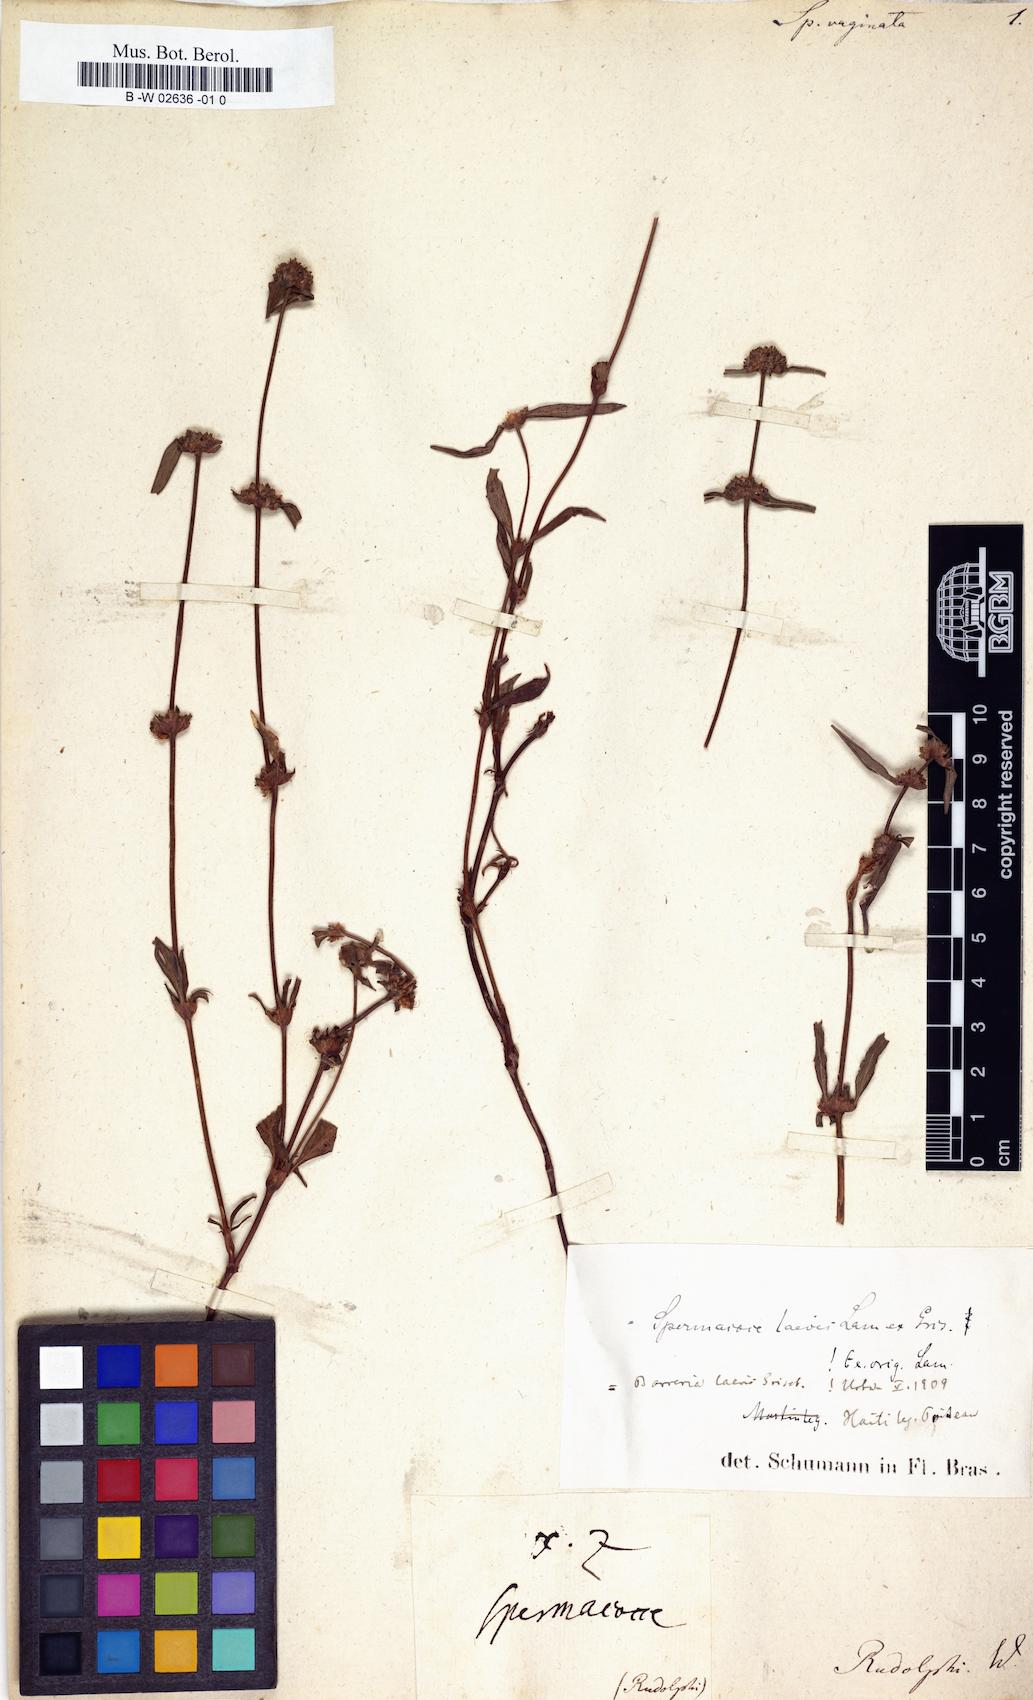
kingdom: Plantae
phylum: Tracheophyta
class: Magnoliopsida
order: Gentianales
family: Rubiaceae
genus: Spermacoce
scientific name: Spermacoce remota
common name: Woodland false buttonweed
